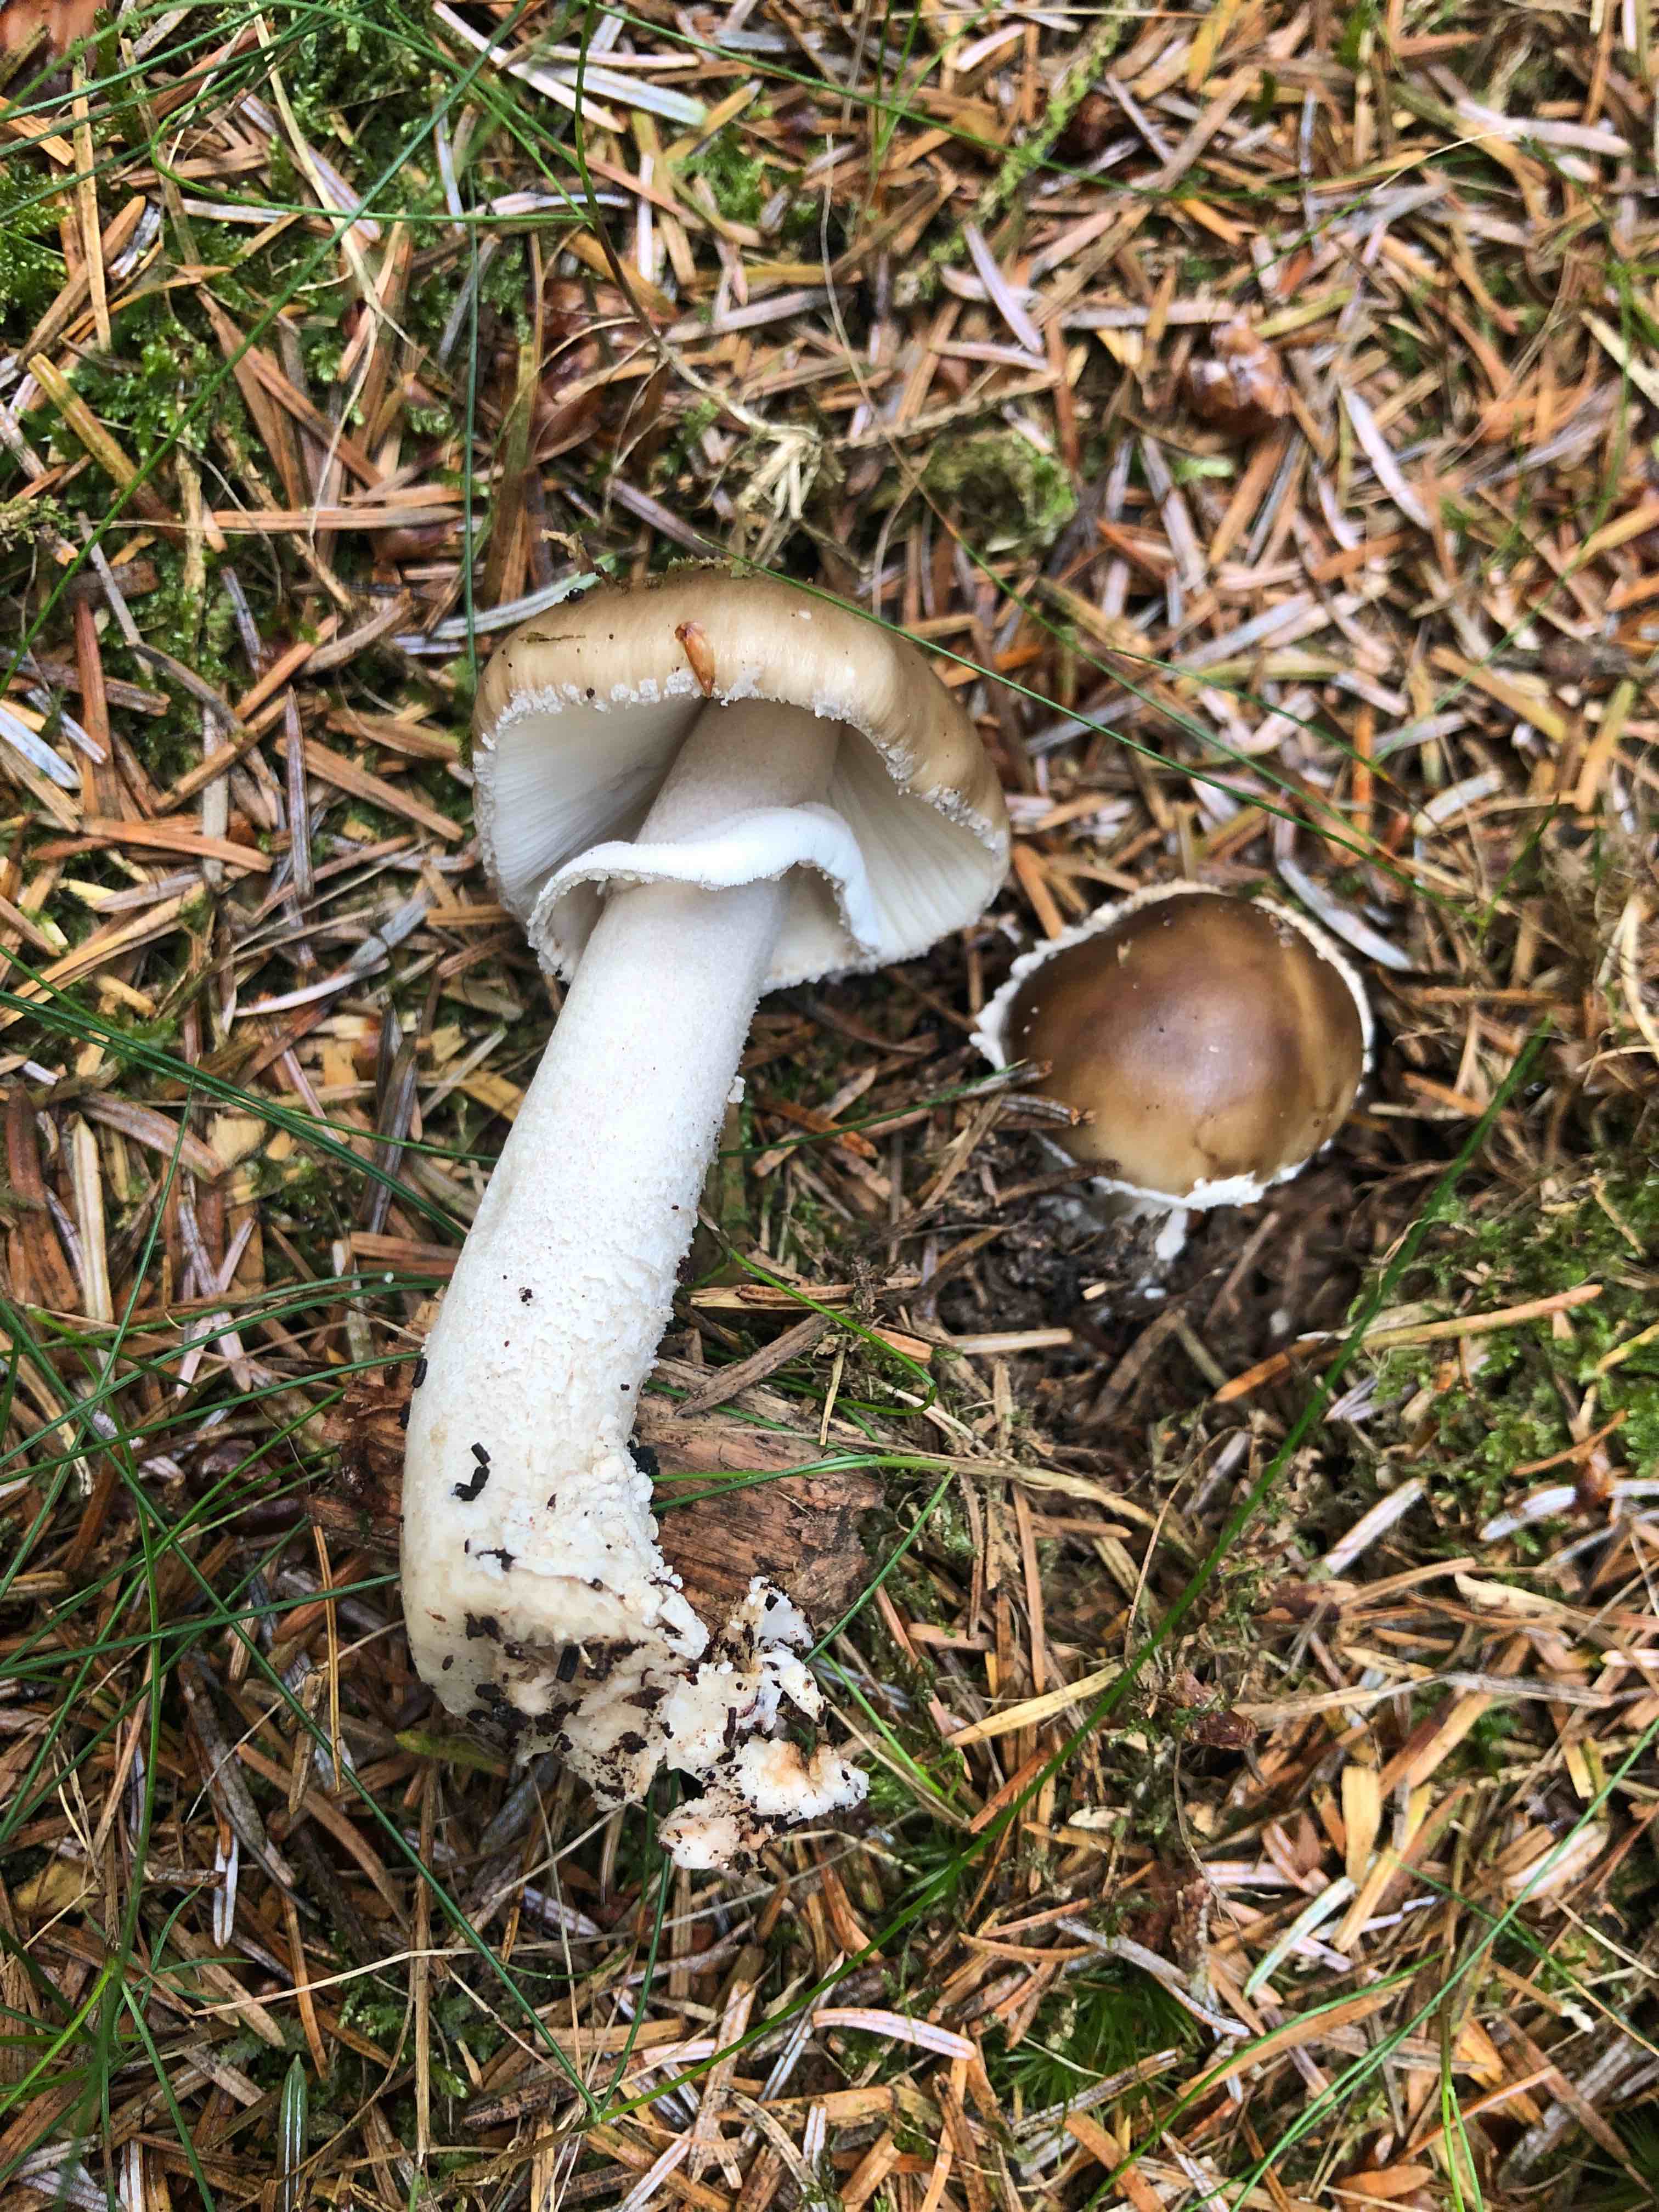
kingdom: Fungi
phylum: Basidiomycota
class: Agaricomycetes
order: Agaricales
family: Amanitaceae
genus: Amanita
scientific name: Amanita porphyria
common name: porfyr-fluesvamp
